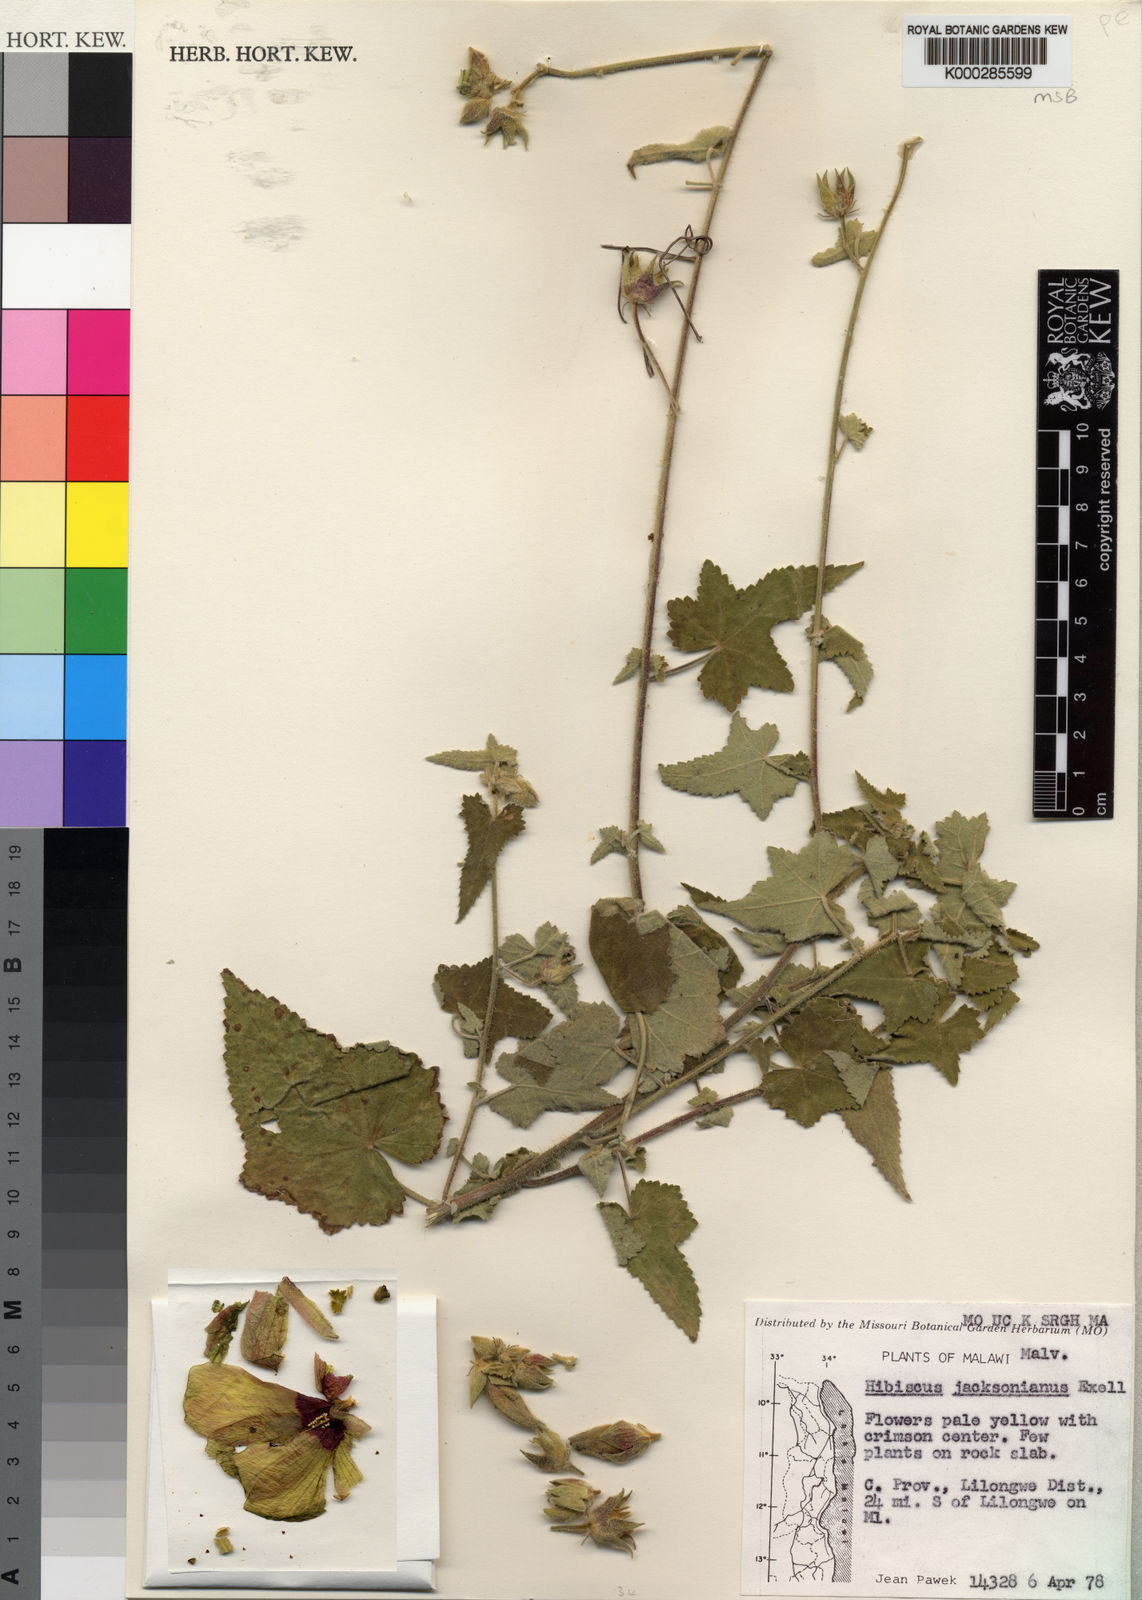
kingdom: Plantae
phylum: Tracheophyta
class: Magnoliopsida
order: Malvales
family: Malvaceae
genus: Hibiscus
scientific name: Hibiscus jacksonianus
